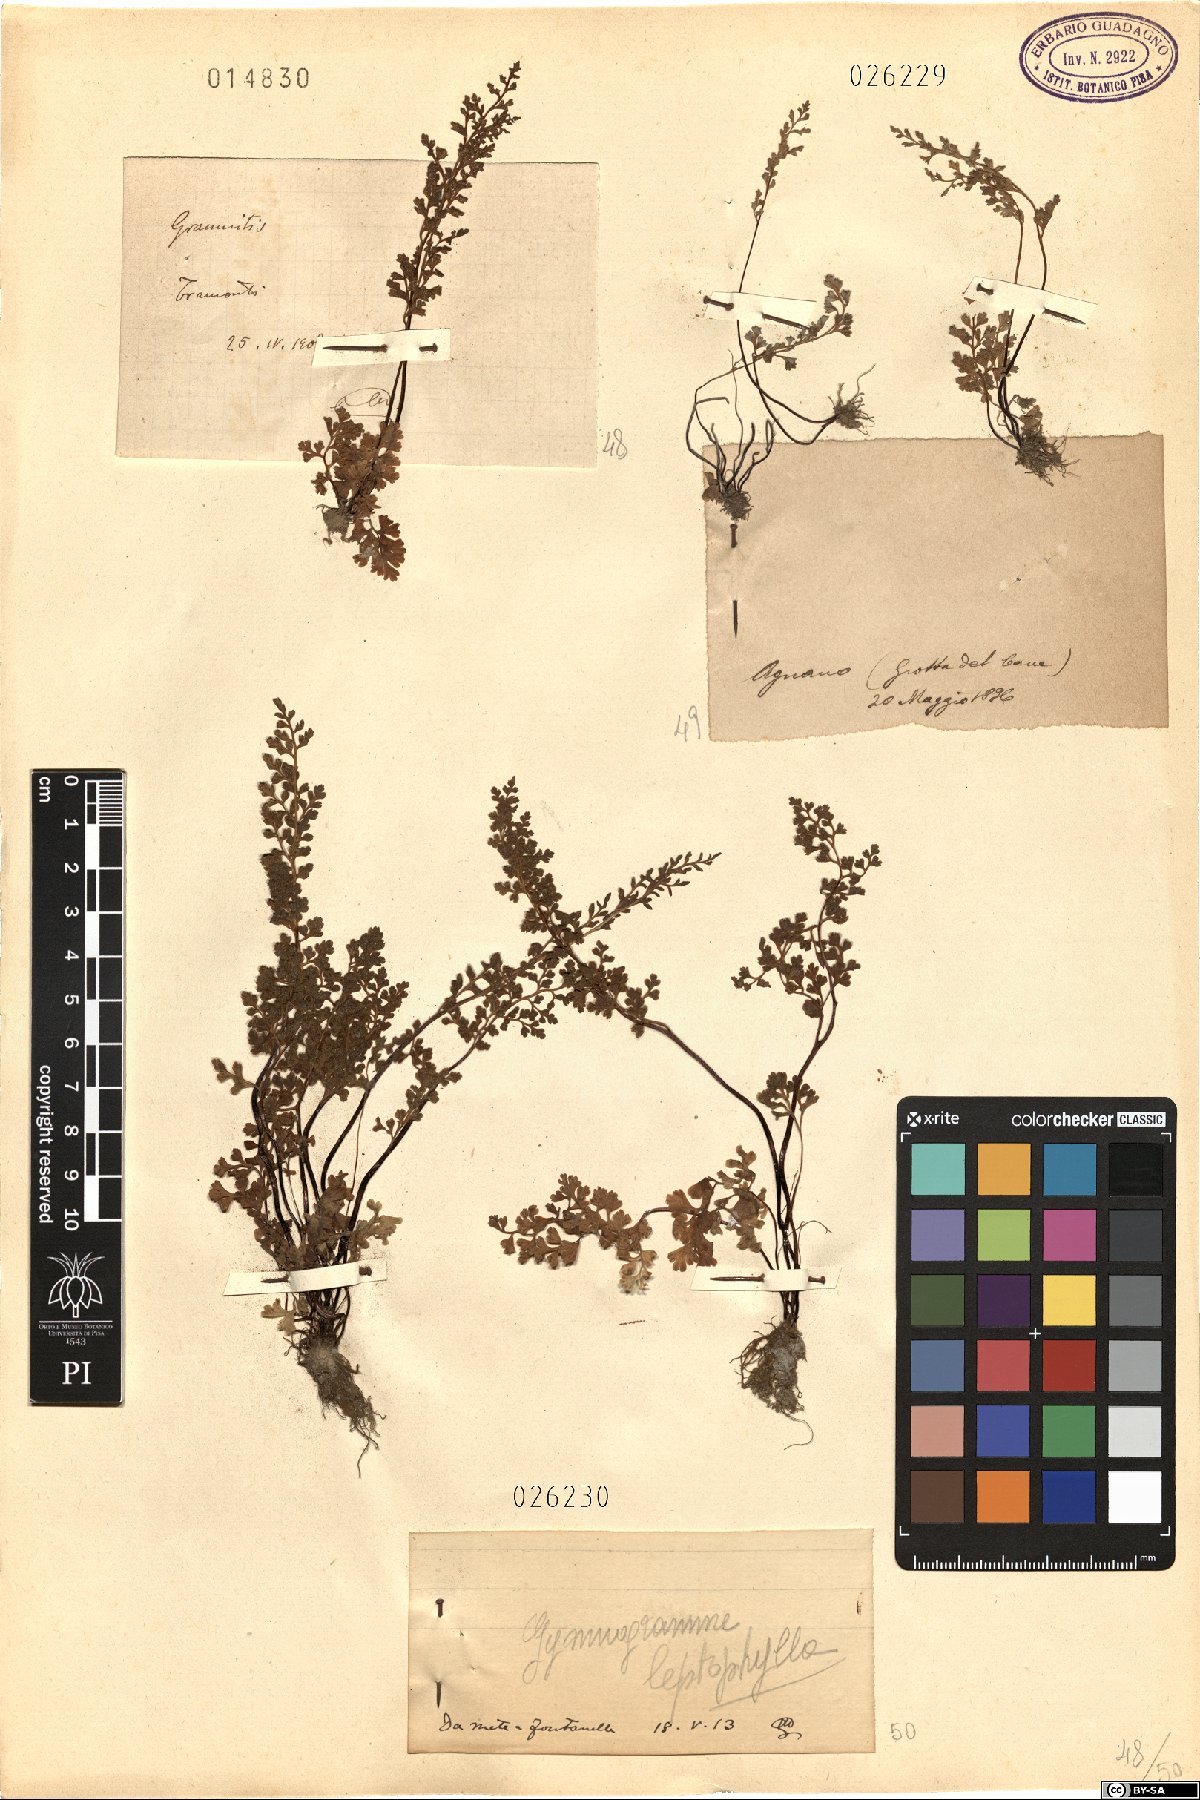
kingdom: Plantae
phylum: Tracheophyta
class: Polypodiopsida
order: Polypodiales
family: Pteridaceae
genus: Anogramma
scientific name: Anogramma leptophylla
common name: Jersey fern
